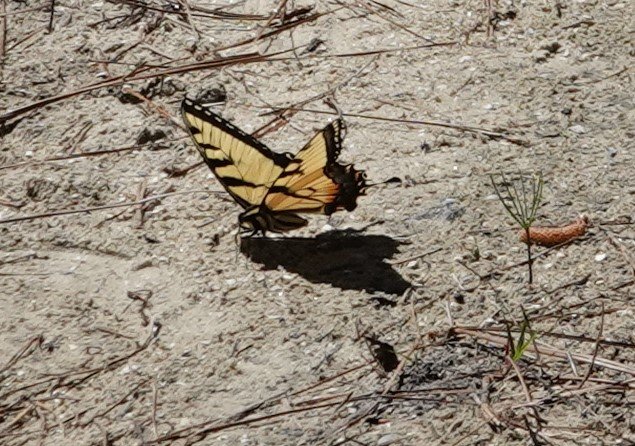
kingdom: Animalia
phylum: Arthropoda
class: Insecta
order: Lepidoptera
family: Papilionidae
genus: Pterourus
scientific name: Pterourus glaucus
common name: Eastern Tiger Swallowtail
